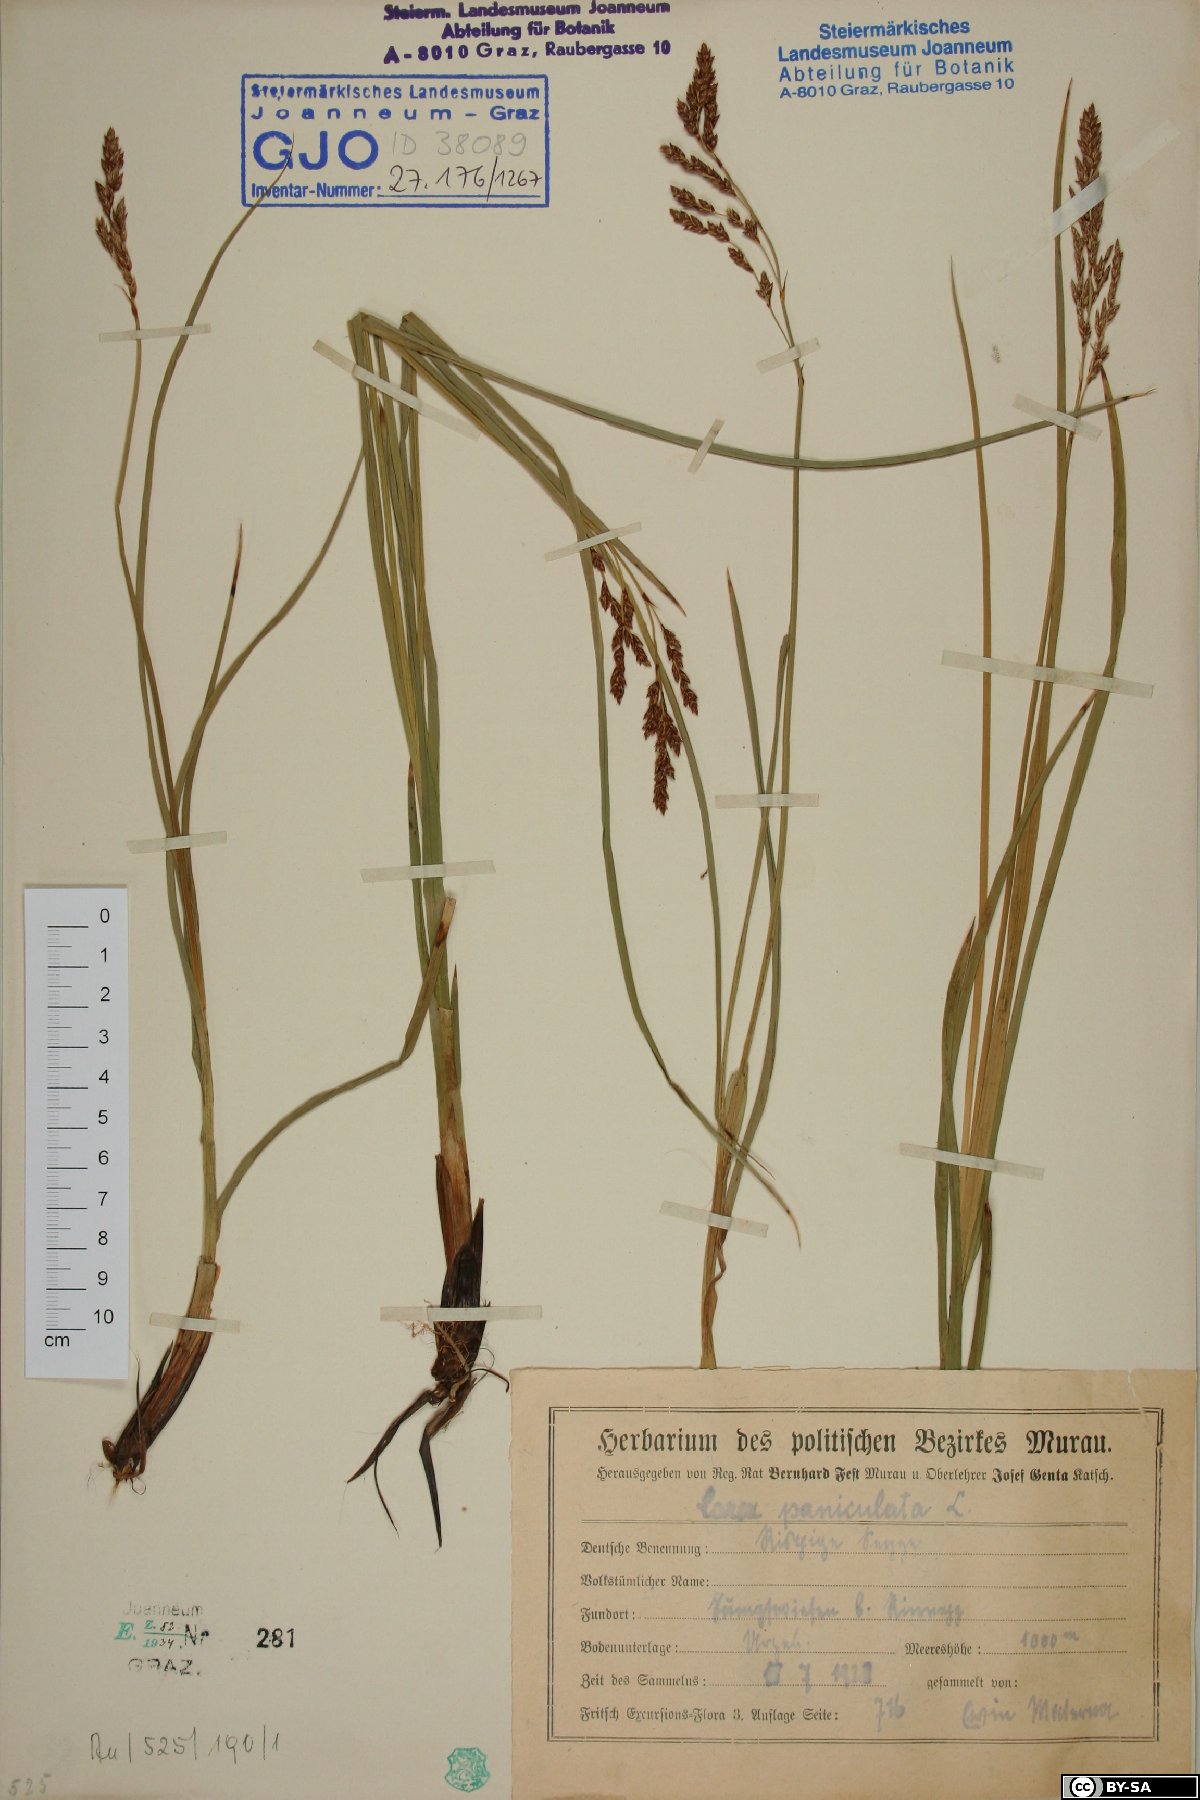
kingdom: Plantae
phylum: Tracheophyta
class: Liliopsida
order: Poales
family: Cyperaceae
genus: Carex
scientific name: Carex paniculata
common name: Greater tussock-sedge
